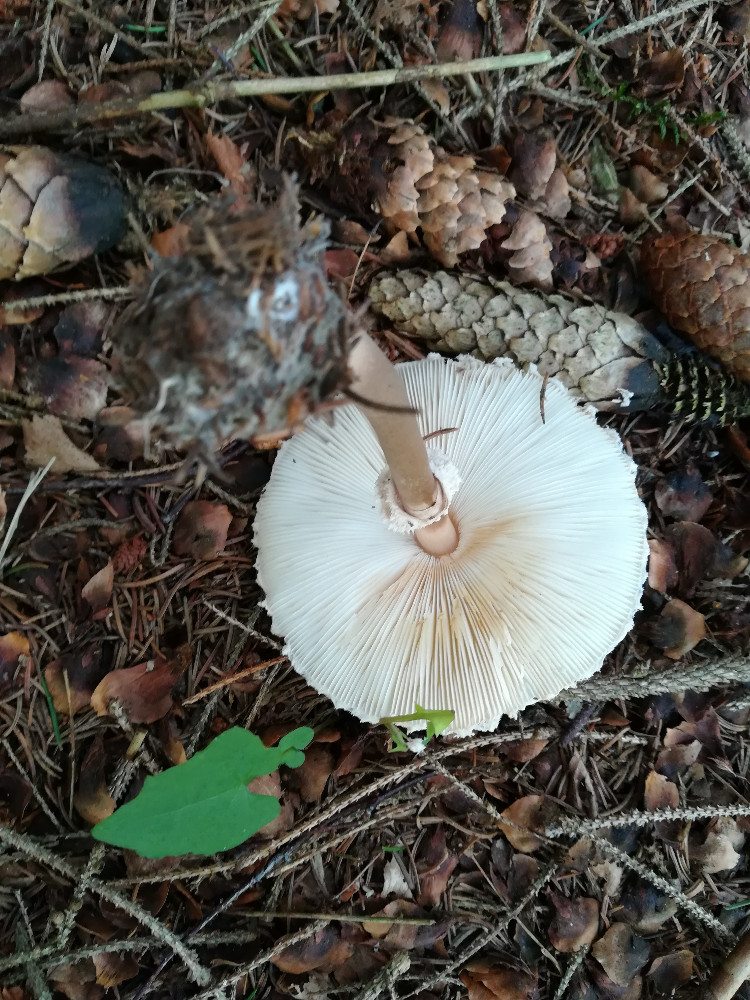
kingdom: Fungi
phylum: Basidiomycota
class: Agaricomycetes
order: Agaricales
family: Agaricaceae
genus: Leucoagaricus
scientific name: Leucoagaricus nympharum
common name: gran-silkehat
